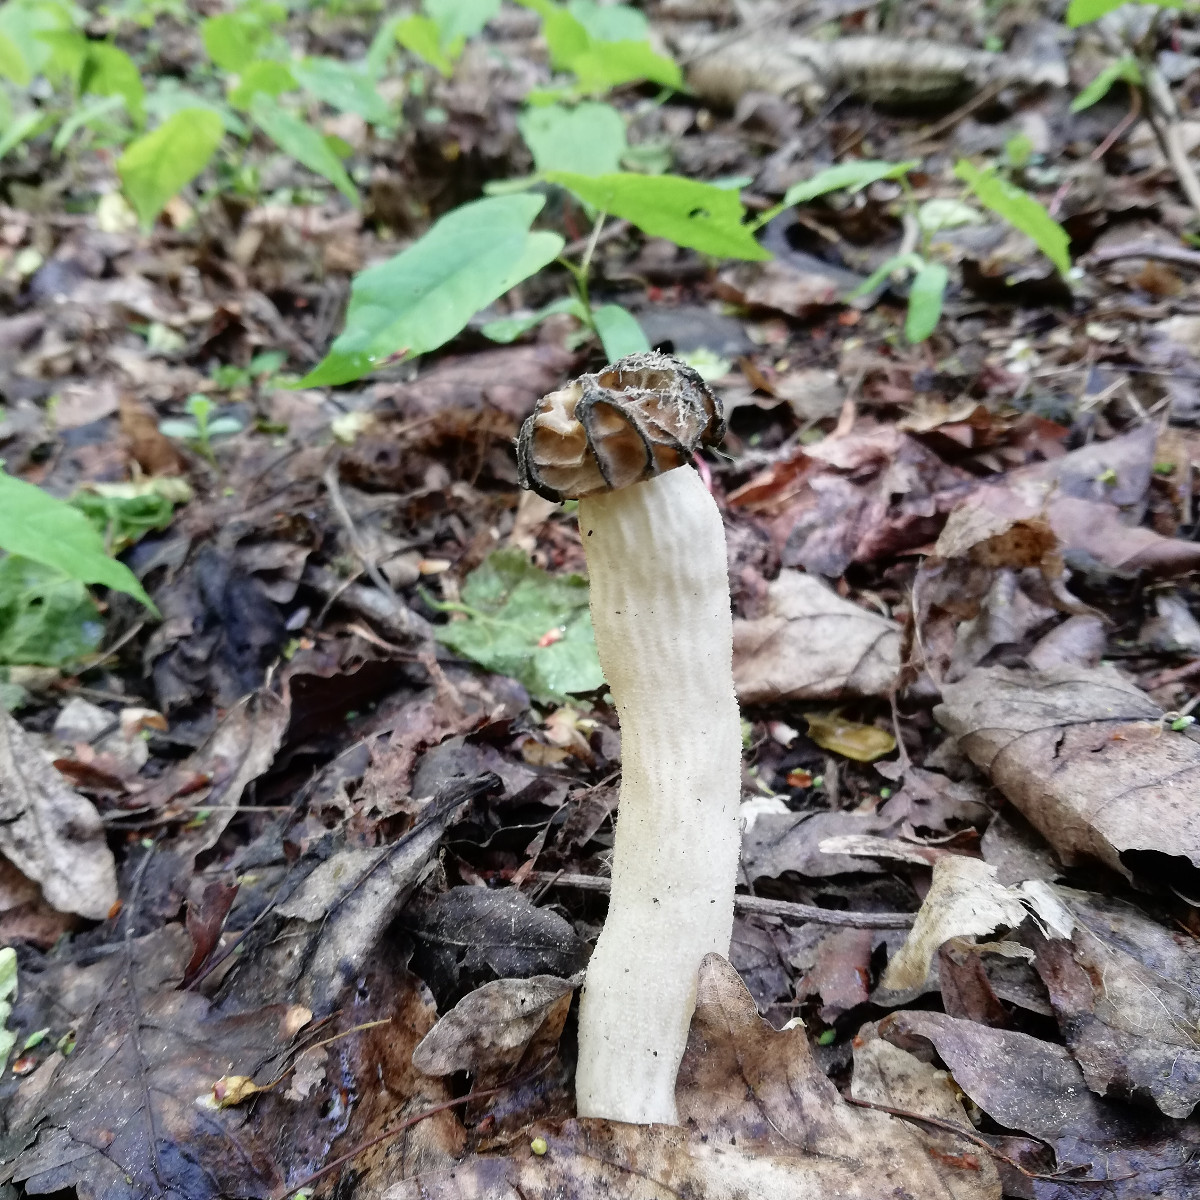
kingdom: Fungi
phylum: Ascomycota
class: Pezizomycetes
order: Pezizales
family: Morchellaceae
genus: Morchella
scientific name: Morchella semilibera
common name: hætte-morkel
